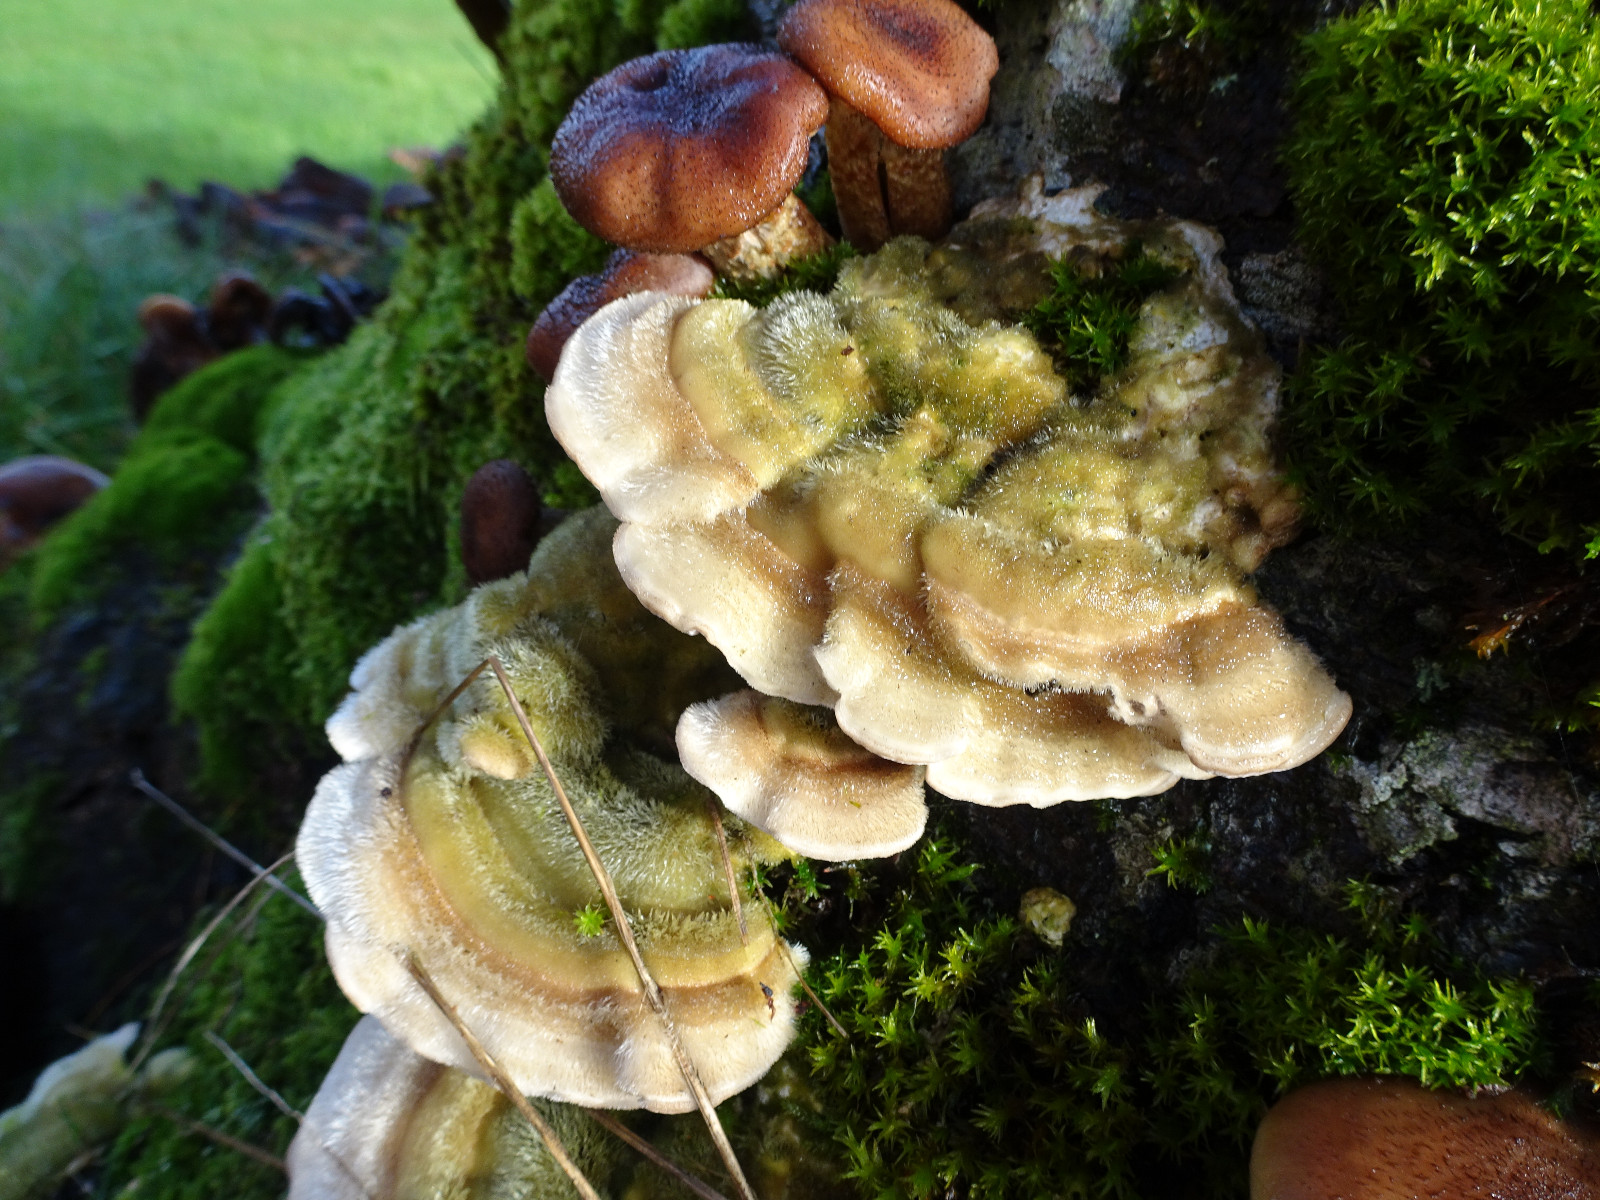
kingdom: Fungi
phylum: Basidiomycota
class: Agaricomycetes
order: Polyporales
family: Polyporaceae
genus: Trametes
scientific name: Trametes hirsuta
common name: håret læderporesvamp
